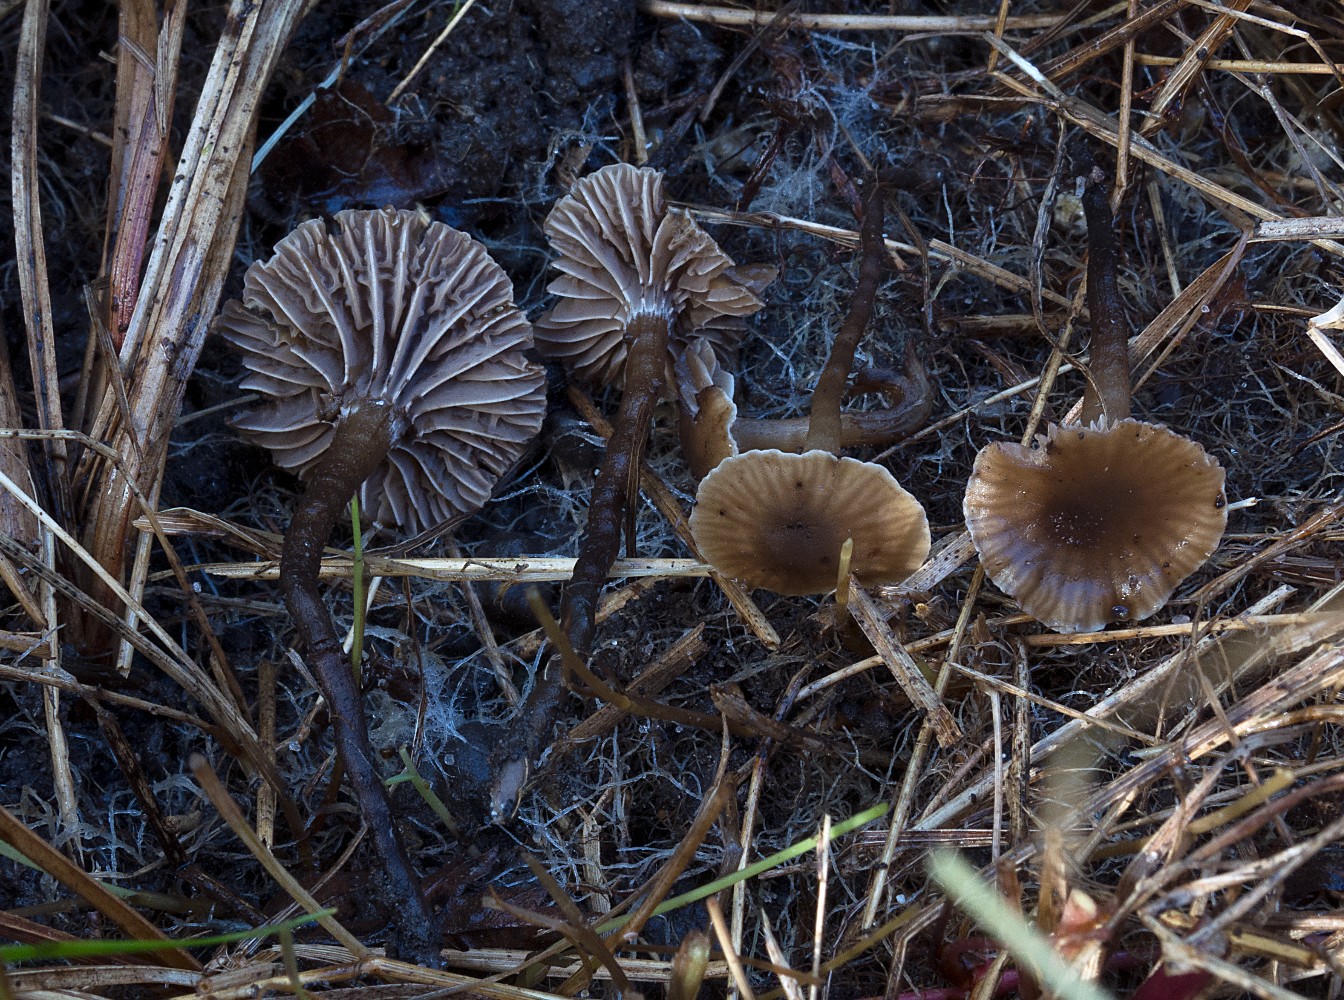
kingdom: Fungi
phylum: Basidiomycota
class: Agaricomycetes
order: Agaricales
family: Clavariaceae
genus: Hodophilus
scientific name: Hodophilus
